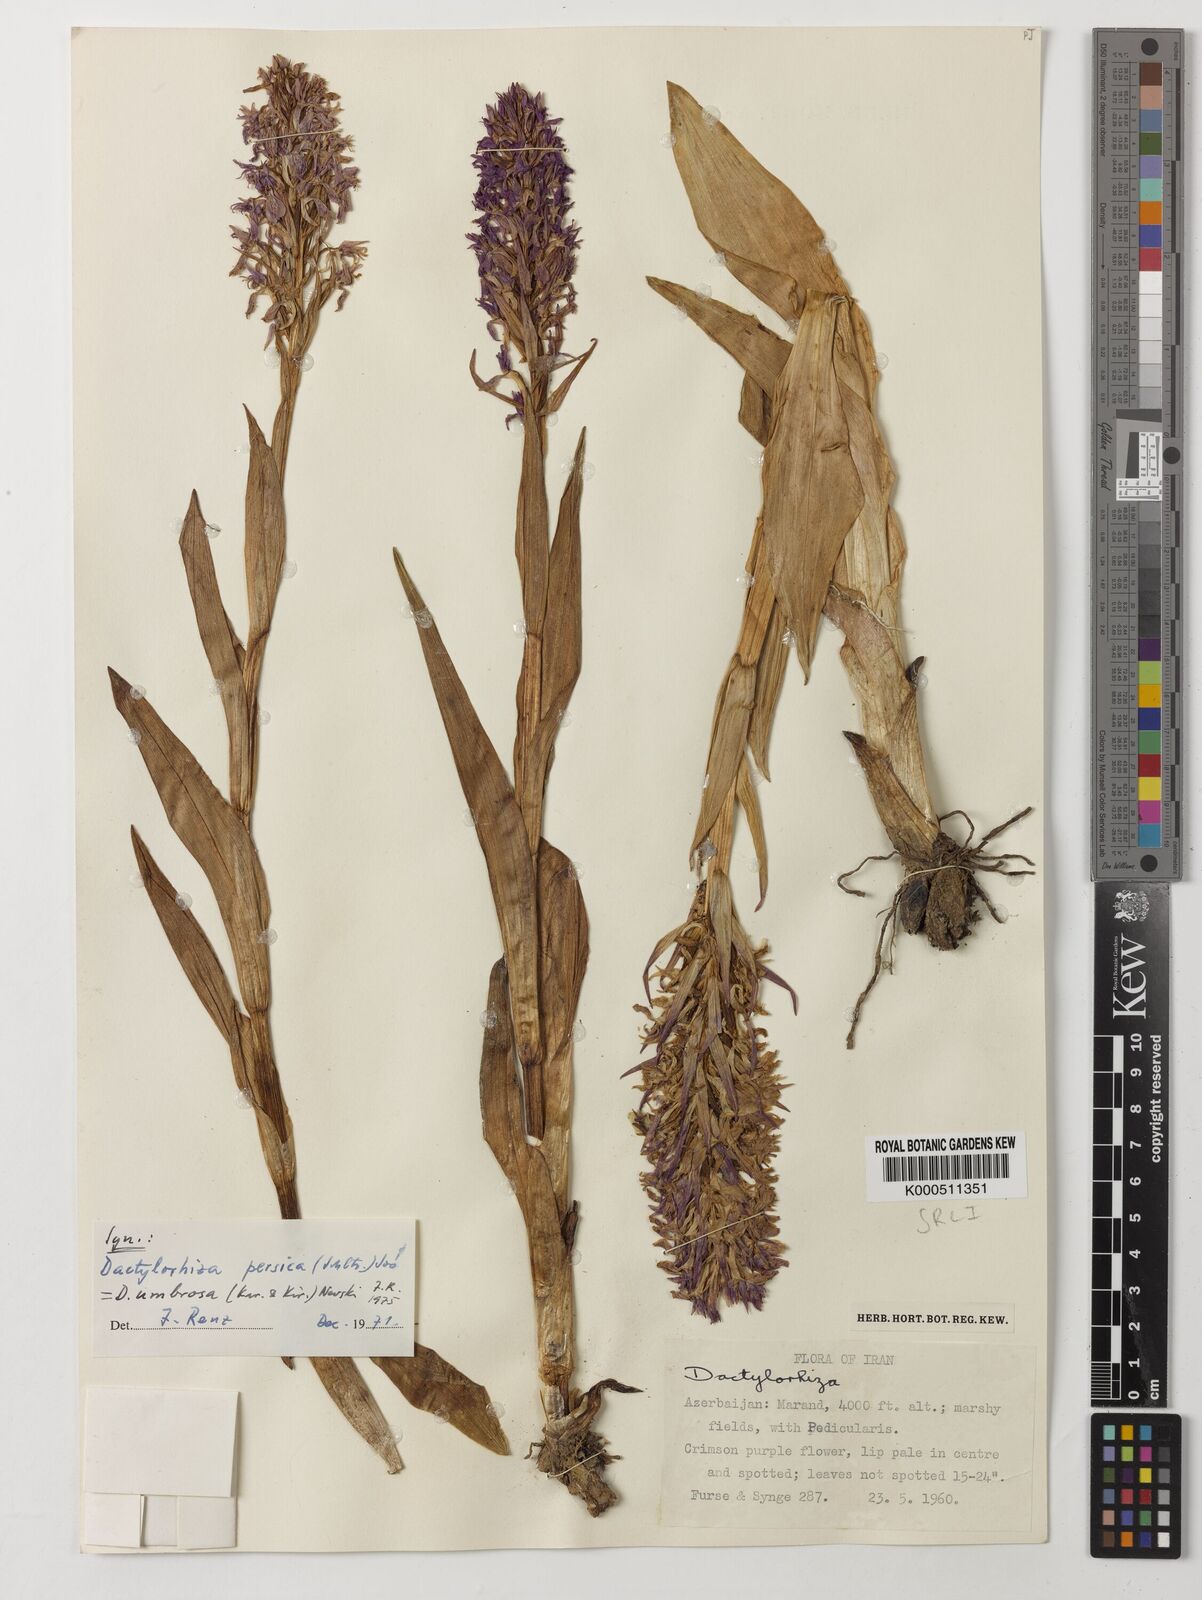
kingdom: Plantae
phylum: Tracheophyta
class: Liliopsida
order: Asparagales
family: Orchidaceae
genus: Dactylorhiza
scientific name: Dactylorhiza
